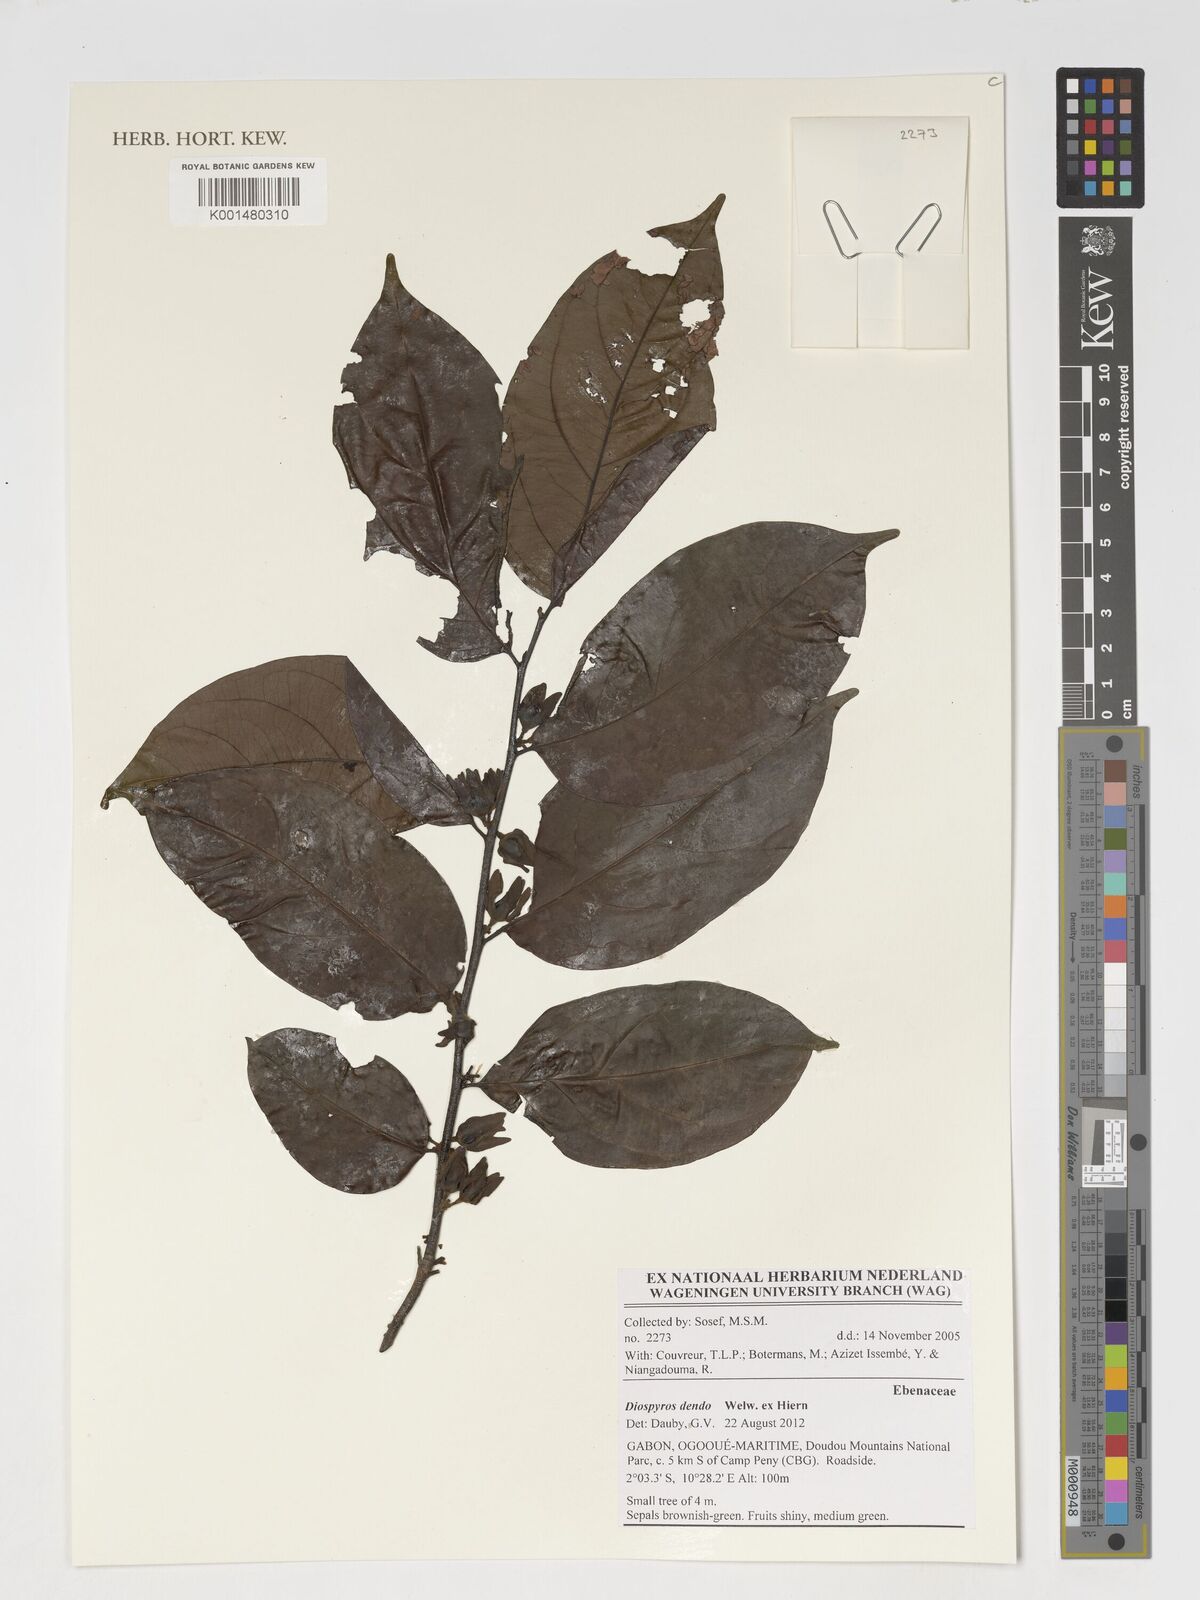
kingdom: Plantae
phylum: Tracheophyta
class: Magnoliopsida
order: Ericales
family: Ebenaceae
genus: Diospyros
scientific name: Diospyros dendo
